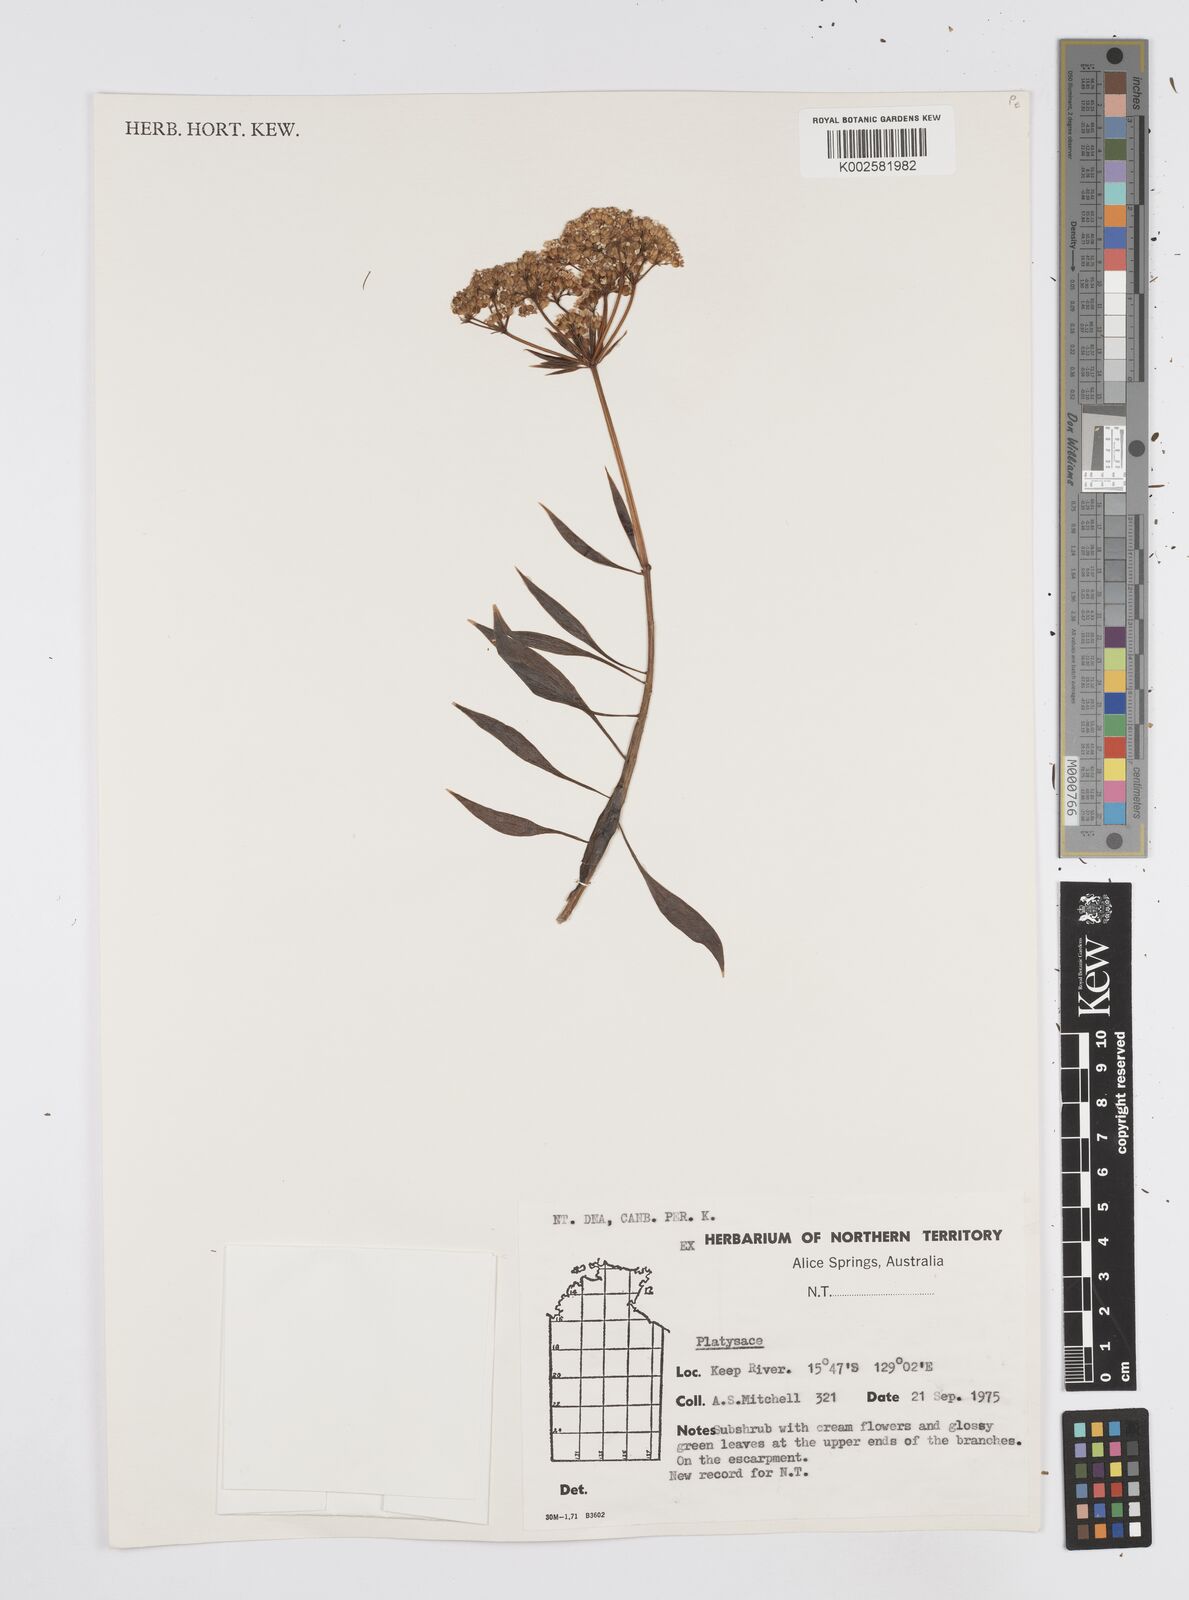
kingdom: Plantae
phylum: Tracheophyta
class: Magnoliopsida
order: Apiales
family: Apiaceae
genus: Platysace
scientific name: Platysace
